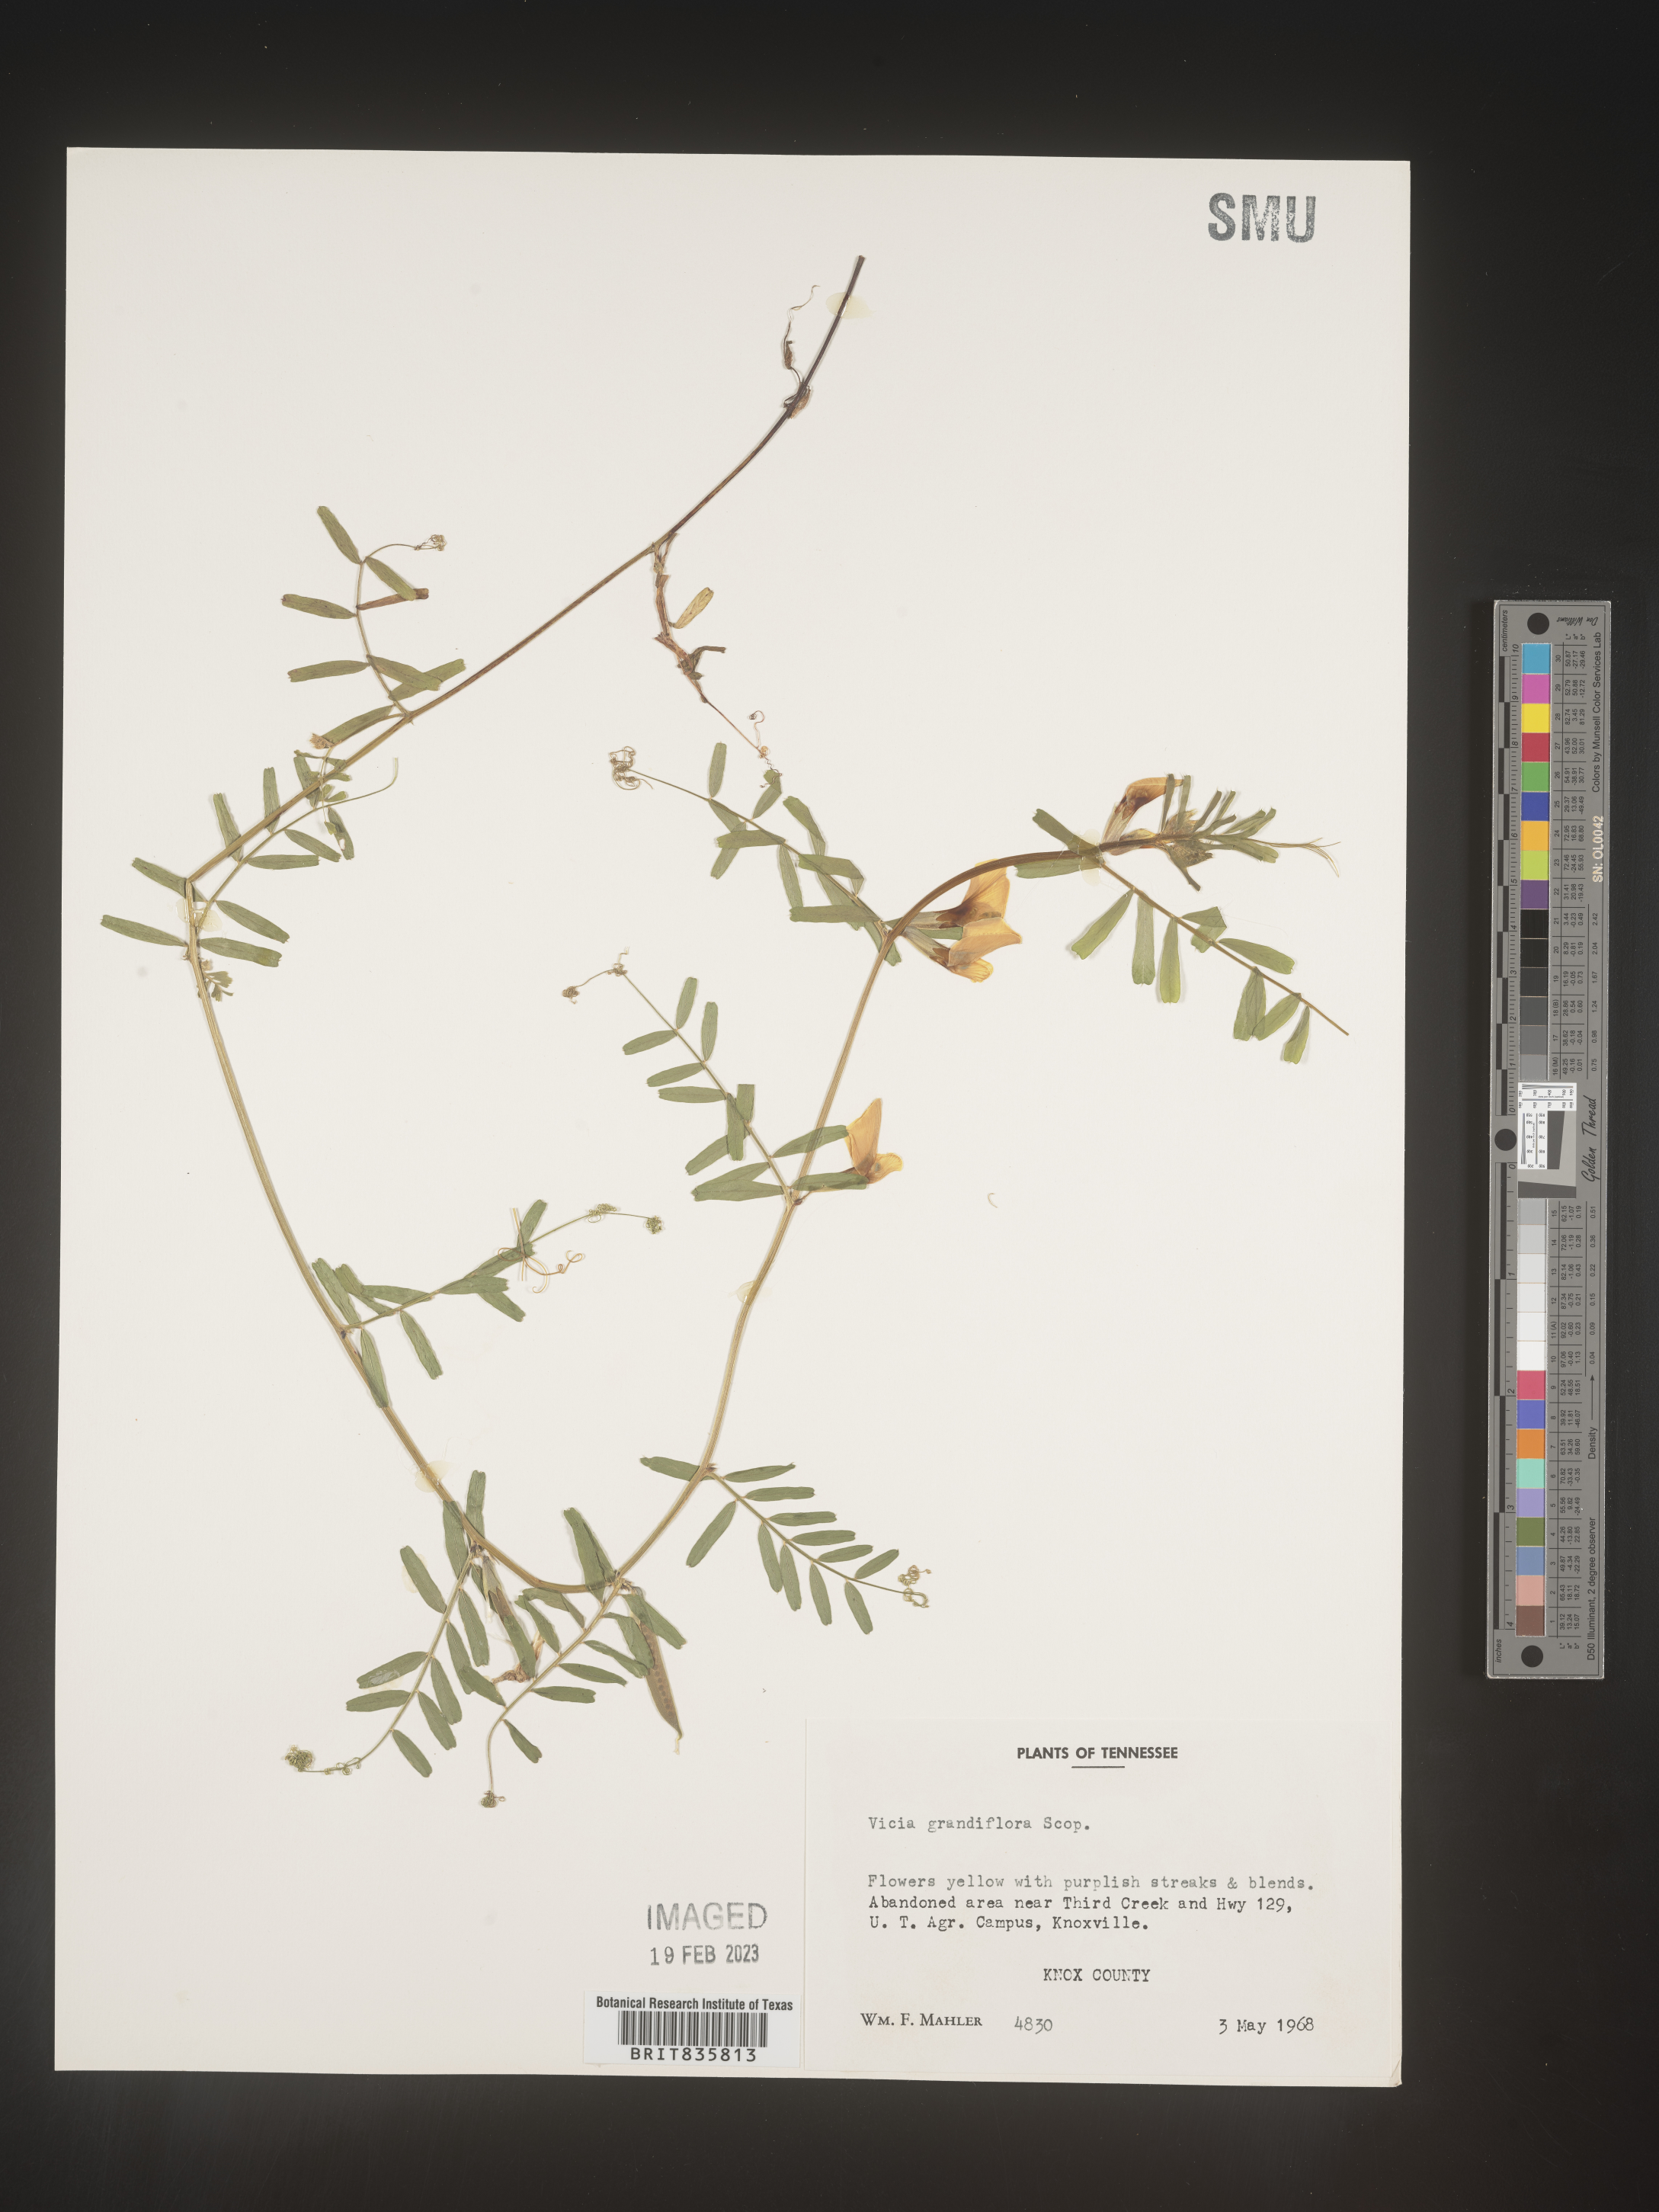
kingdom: Plantae
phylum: Tracheophyta
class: Magnoliopsida
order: Fabales
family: Fabaceae
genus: Vicia
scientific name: Vicia grandiflora
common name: Large yellow vetch
